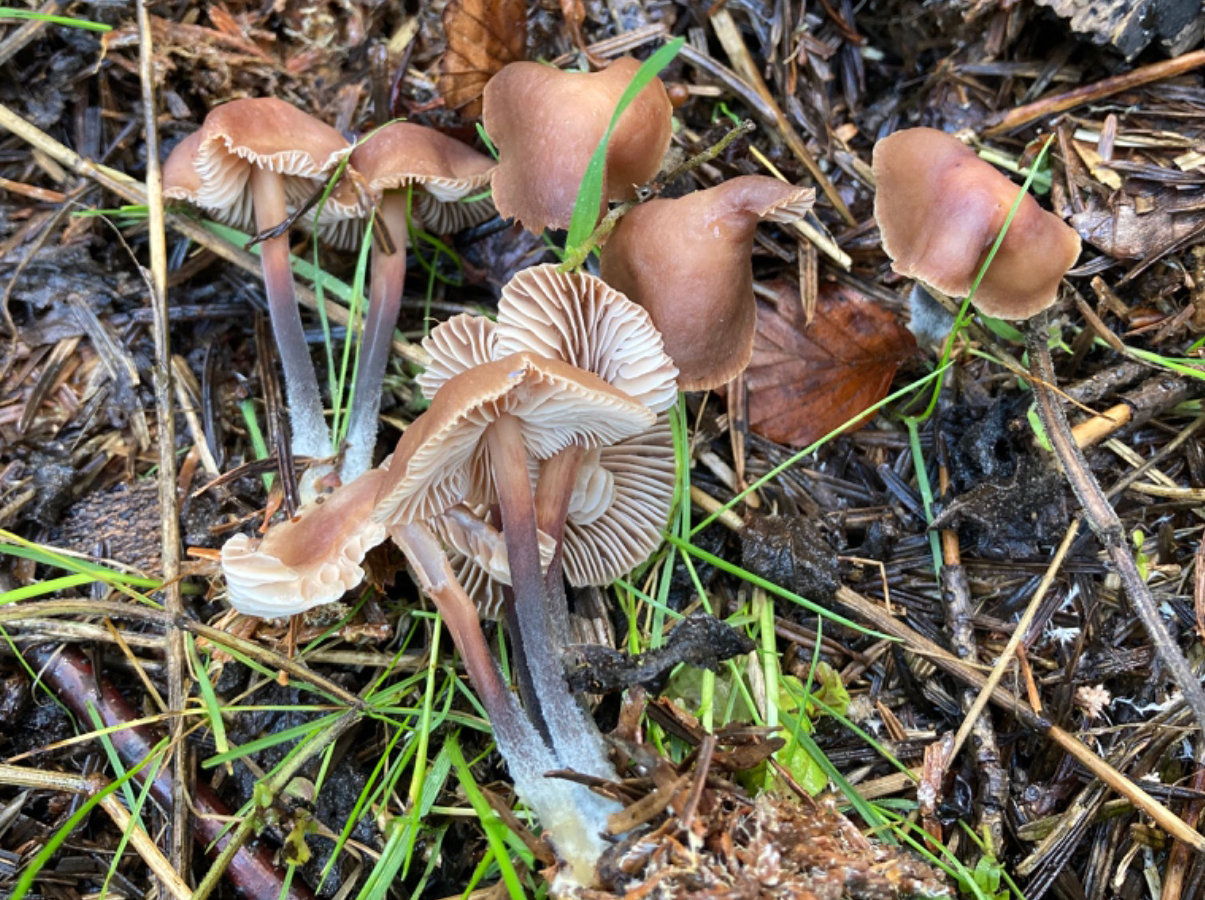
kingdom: Fungi
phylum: Basidiomycota
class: Agaricomycetes
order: Agaricales
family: Omphalotaceae
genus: Gymnopus
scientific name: Gymnopus impudicus
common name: fesen fladhat
